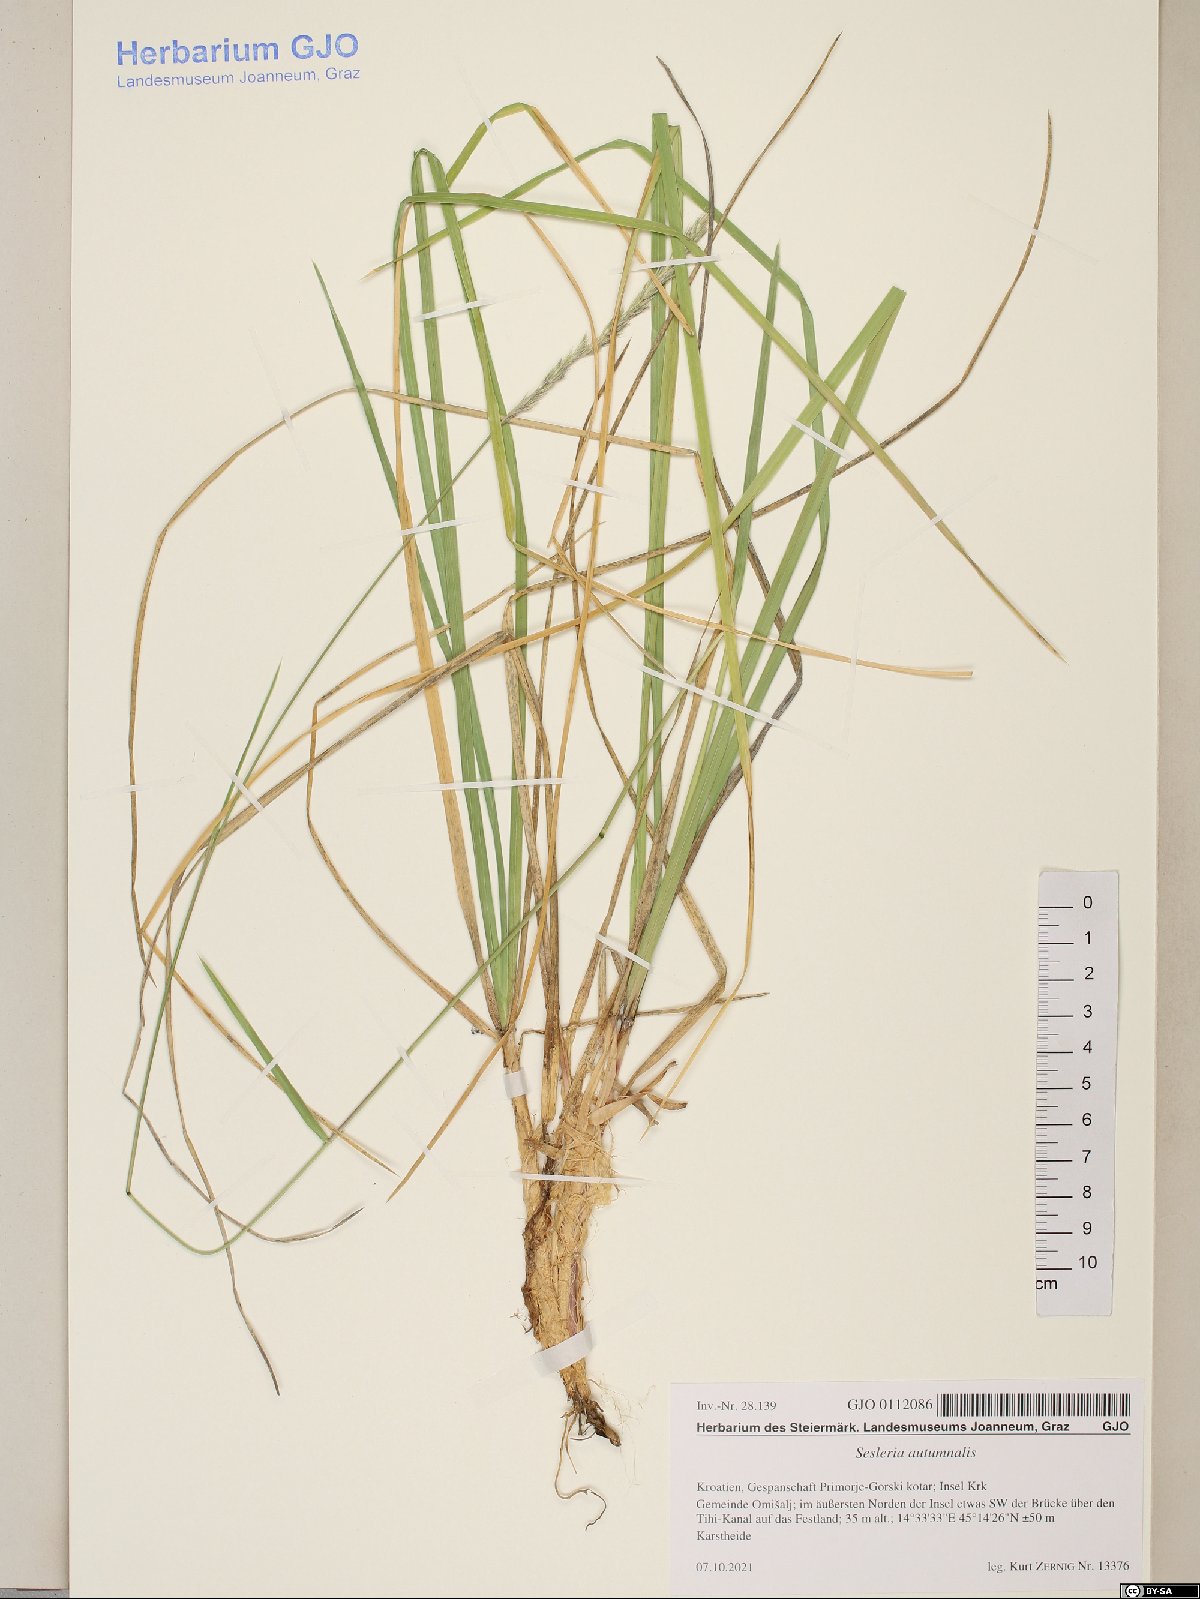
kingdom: Plantae
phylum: Tracheophyta
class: Liliopsida
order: Poales
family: Poaceae
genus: Sesleria
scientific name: Sesleria autumnalis
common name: Autumn moor grass
